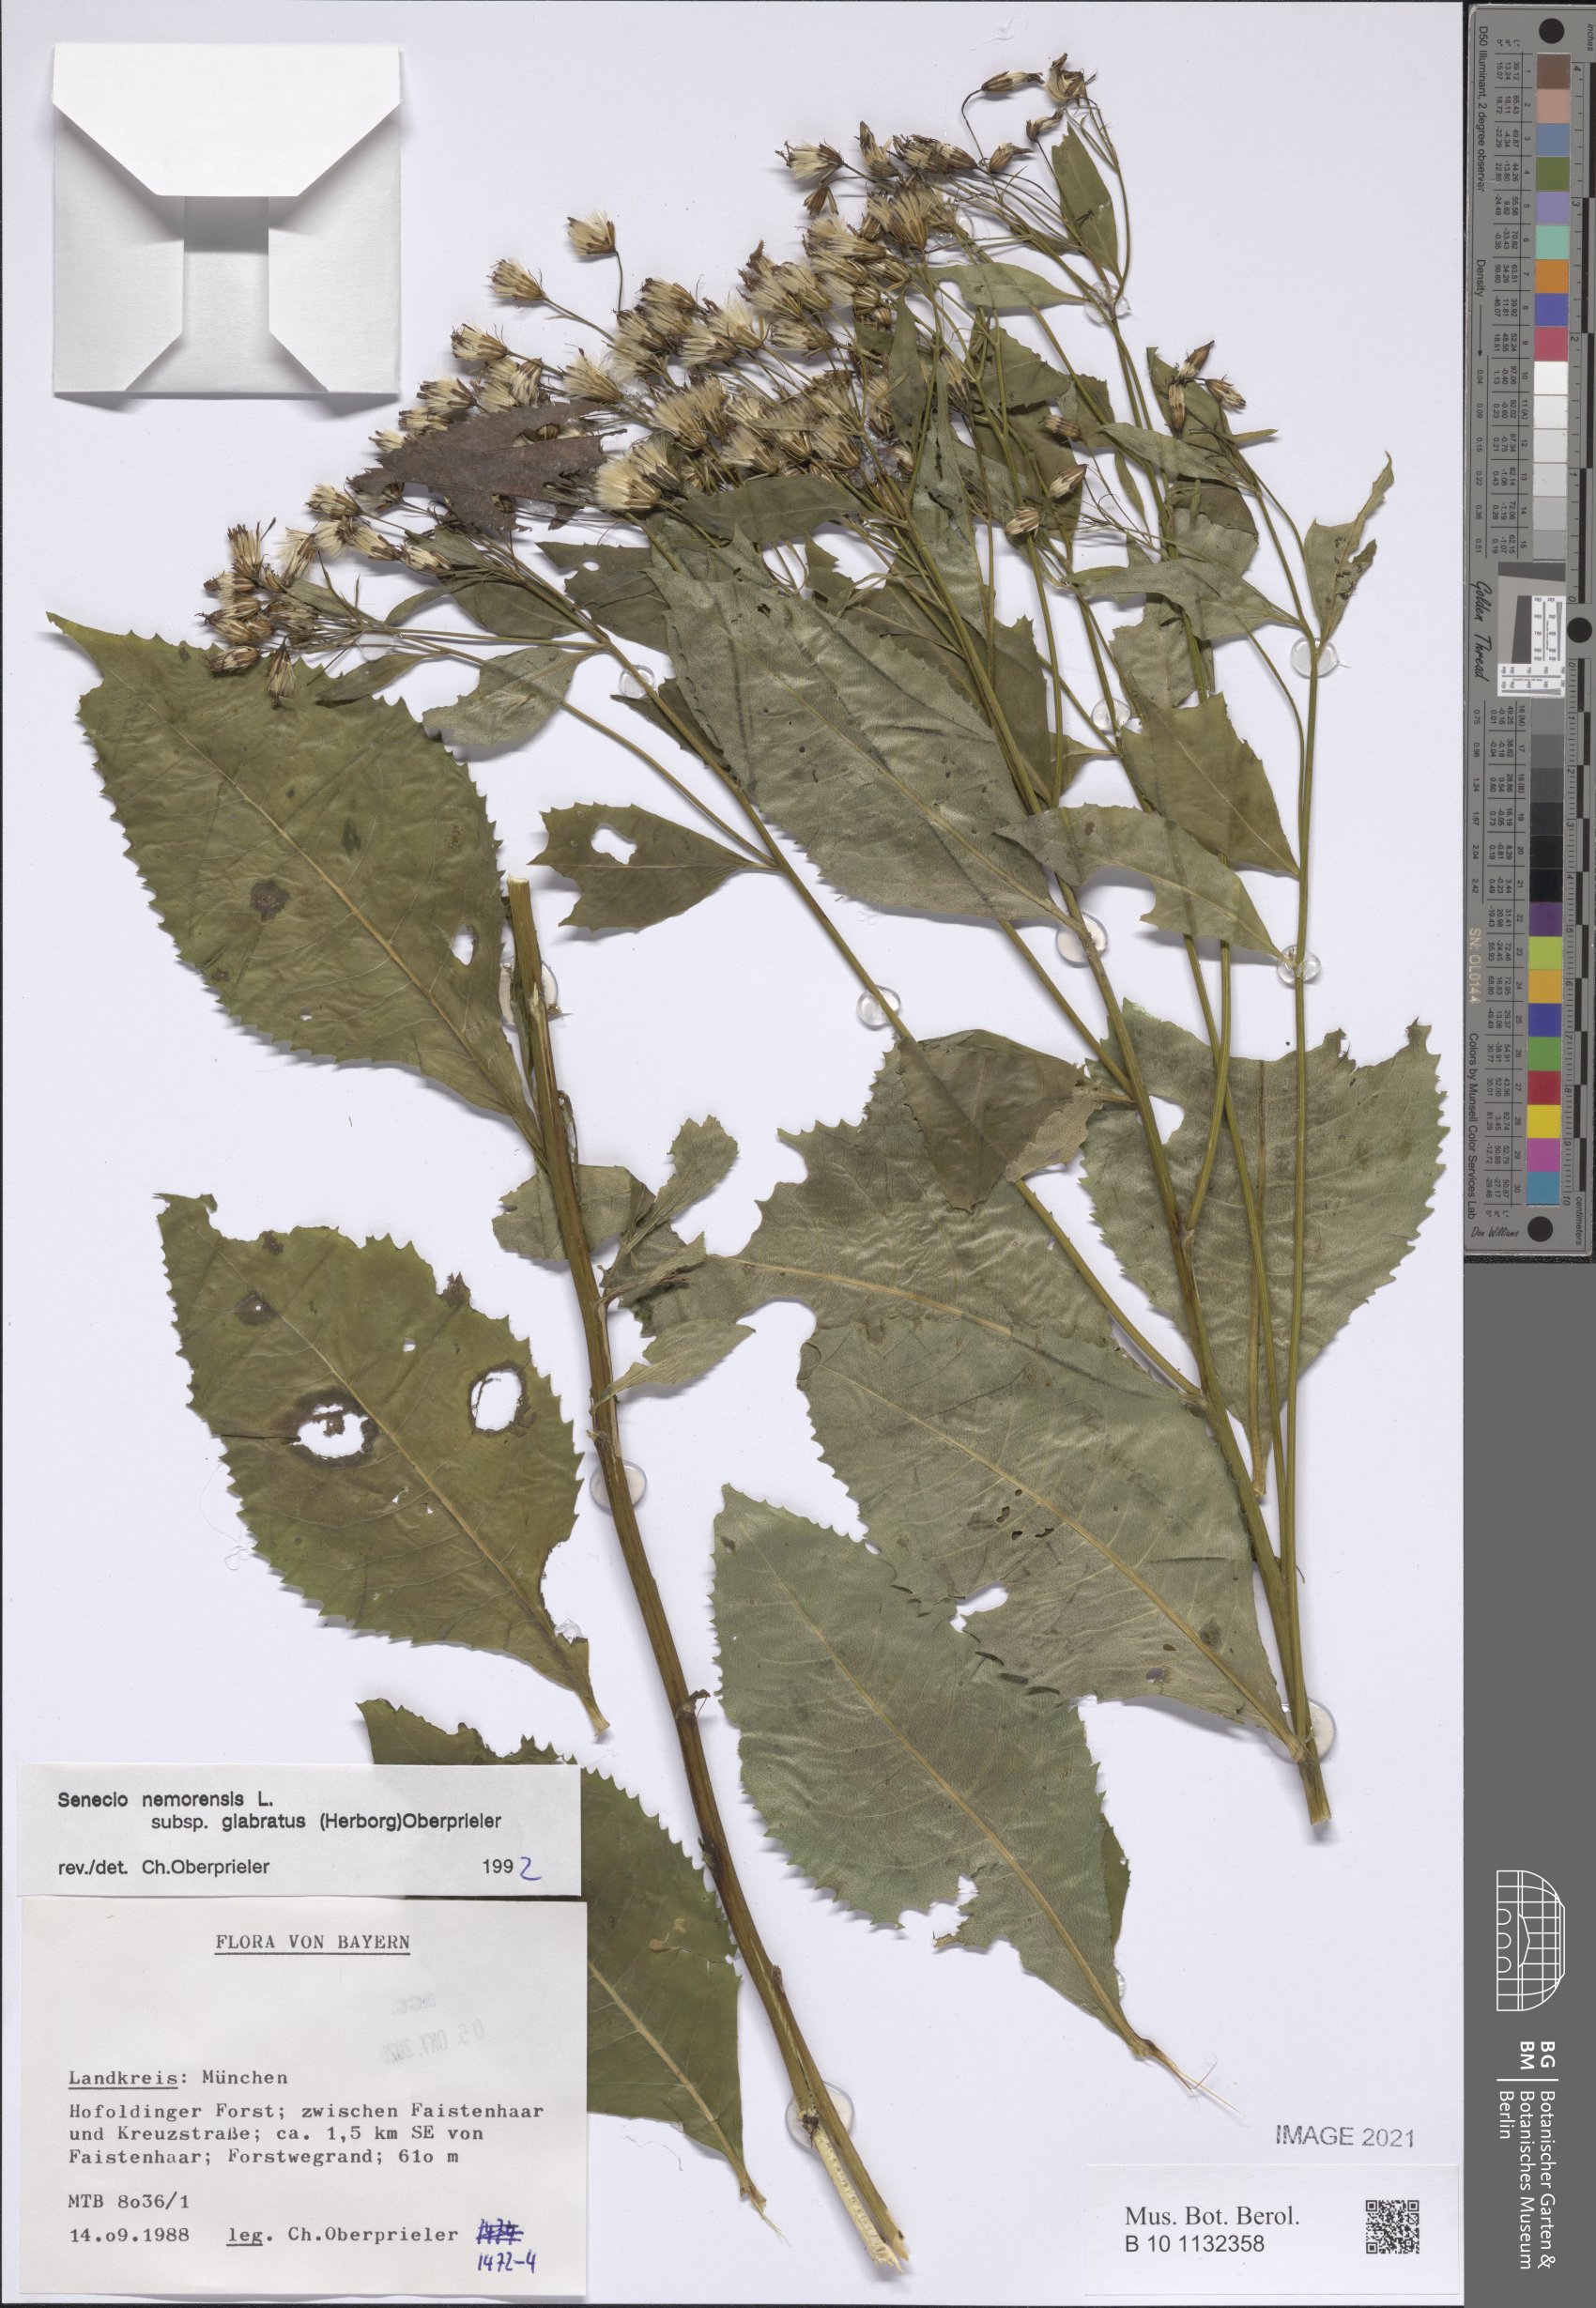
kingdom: Plantae
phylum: Tracheophyta
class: Magnoliopsida
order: Asterales
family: Asteraceae
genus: Senecio
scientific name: Senecio germanicus
